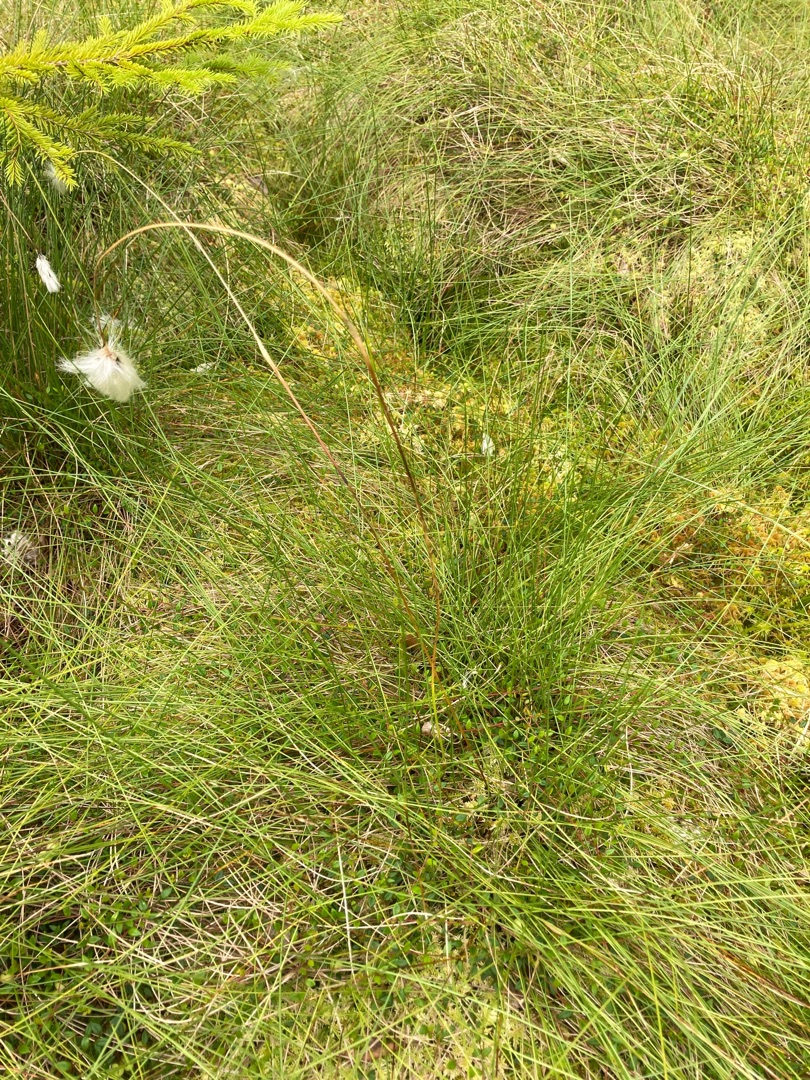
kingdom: Plantae
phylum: Tracheophyta
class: Liliopsida
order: Poales
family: Cyperaceae
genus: Eriophorum
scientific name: Eriophorum vaginatum
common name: Tue-kæruld
